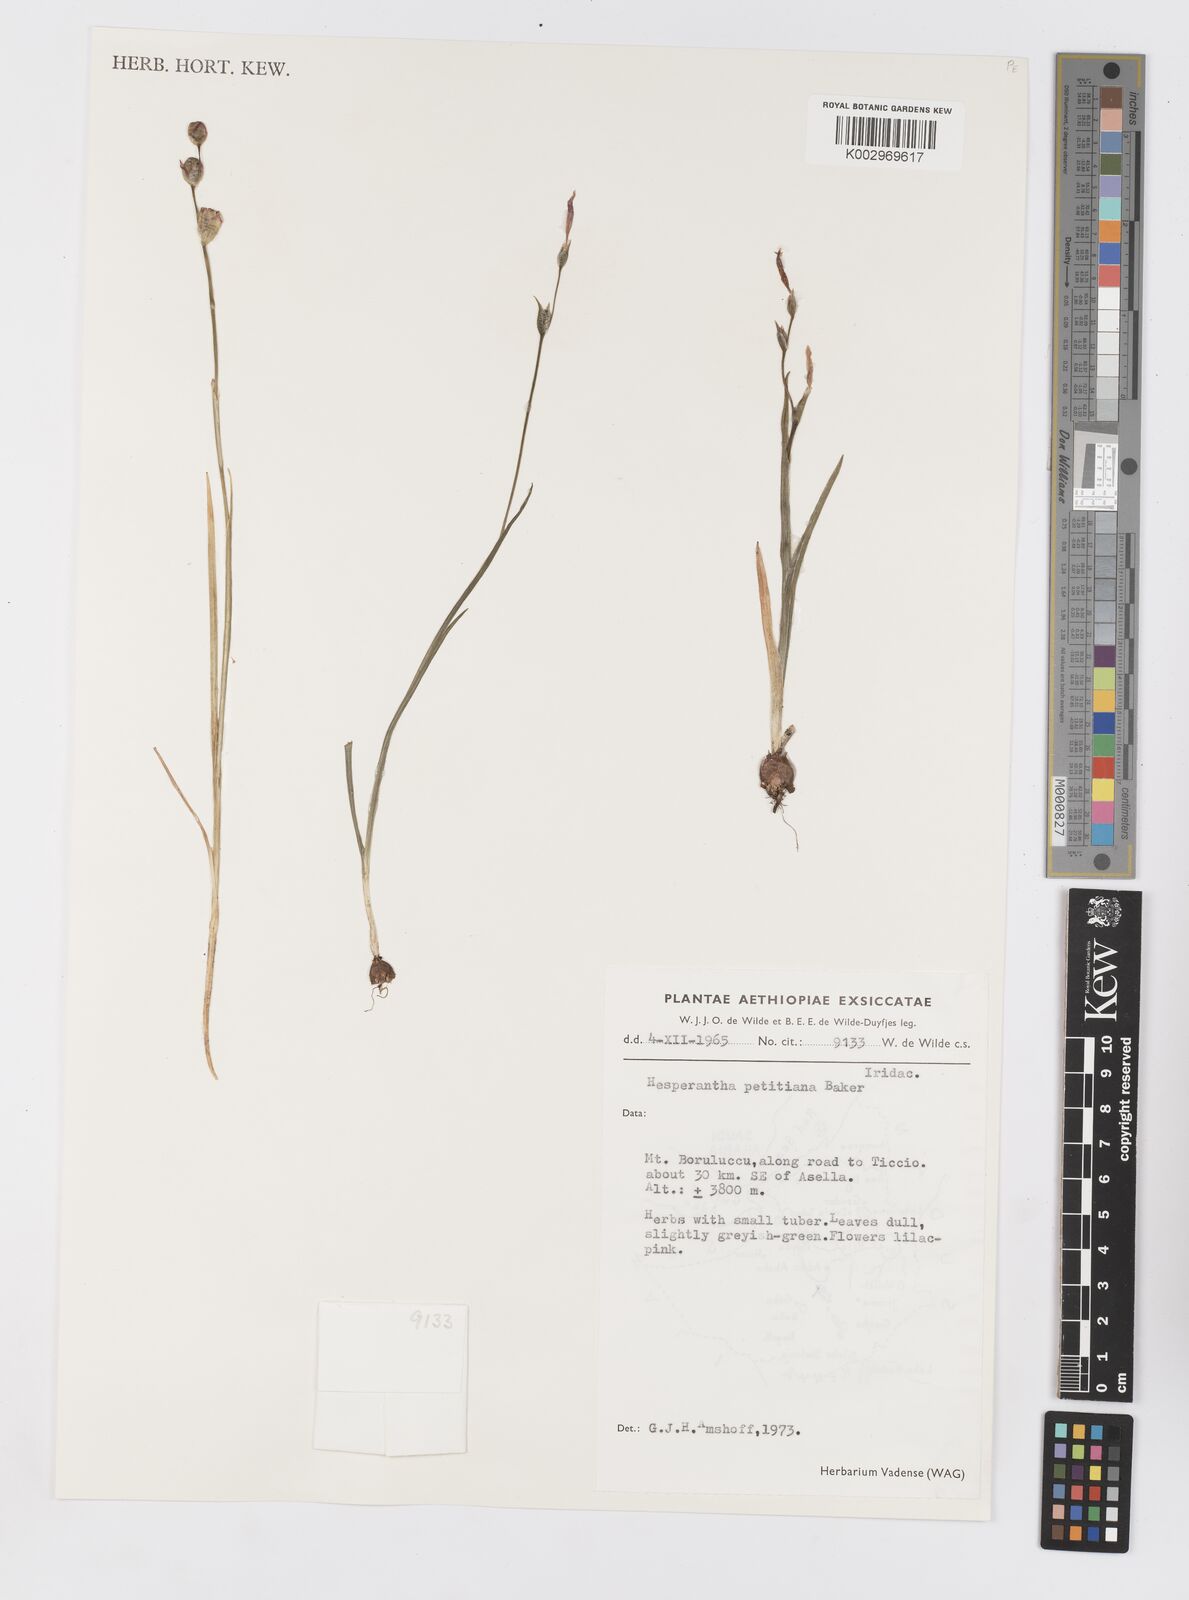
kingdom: Plantae
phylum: Tracheophyta
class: Liliopsida
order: Asparagales
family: Iridaceae
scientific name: Iridaceae
